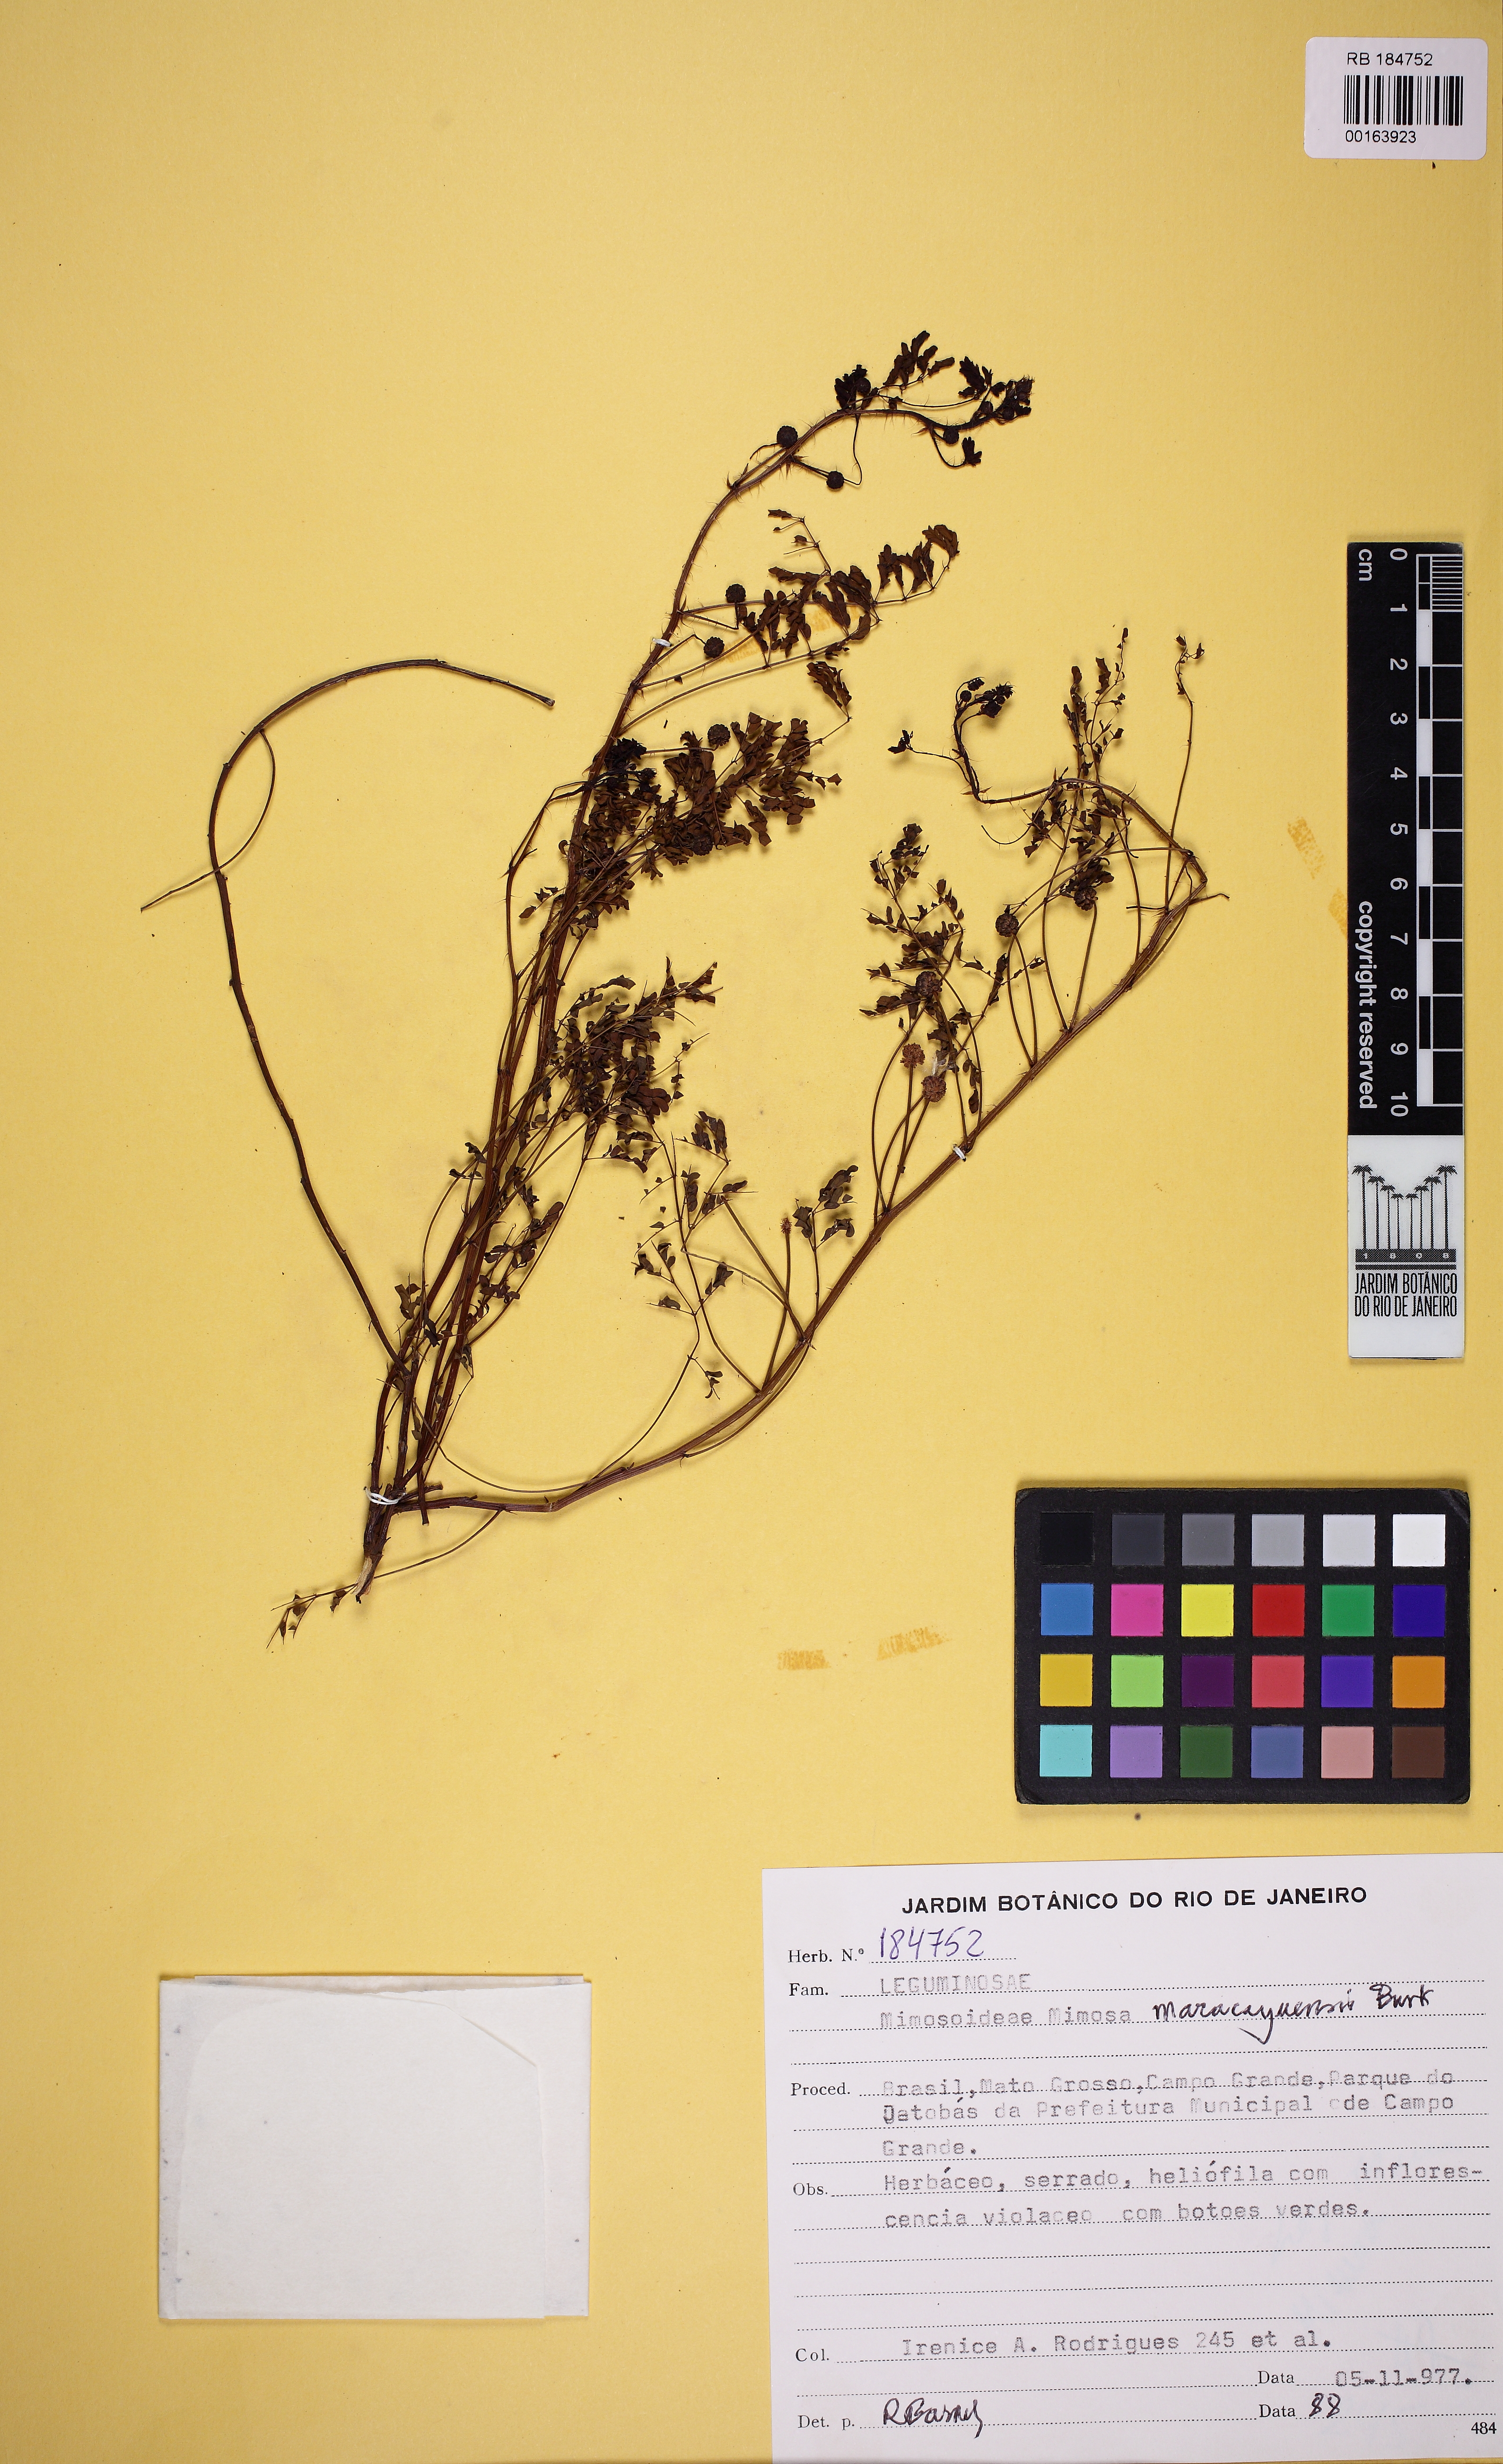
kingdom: Plantae
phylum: Tracheophyta
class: Magnoliopsida
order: Fabales
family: Fabaceae
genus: Mimosa
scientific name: Mimosa maracayuensis
